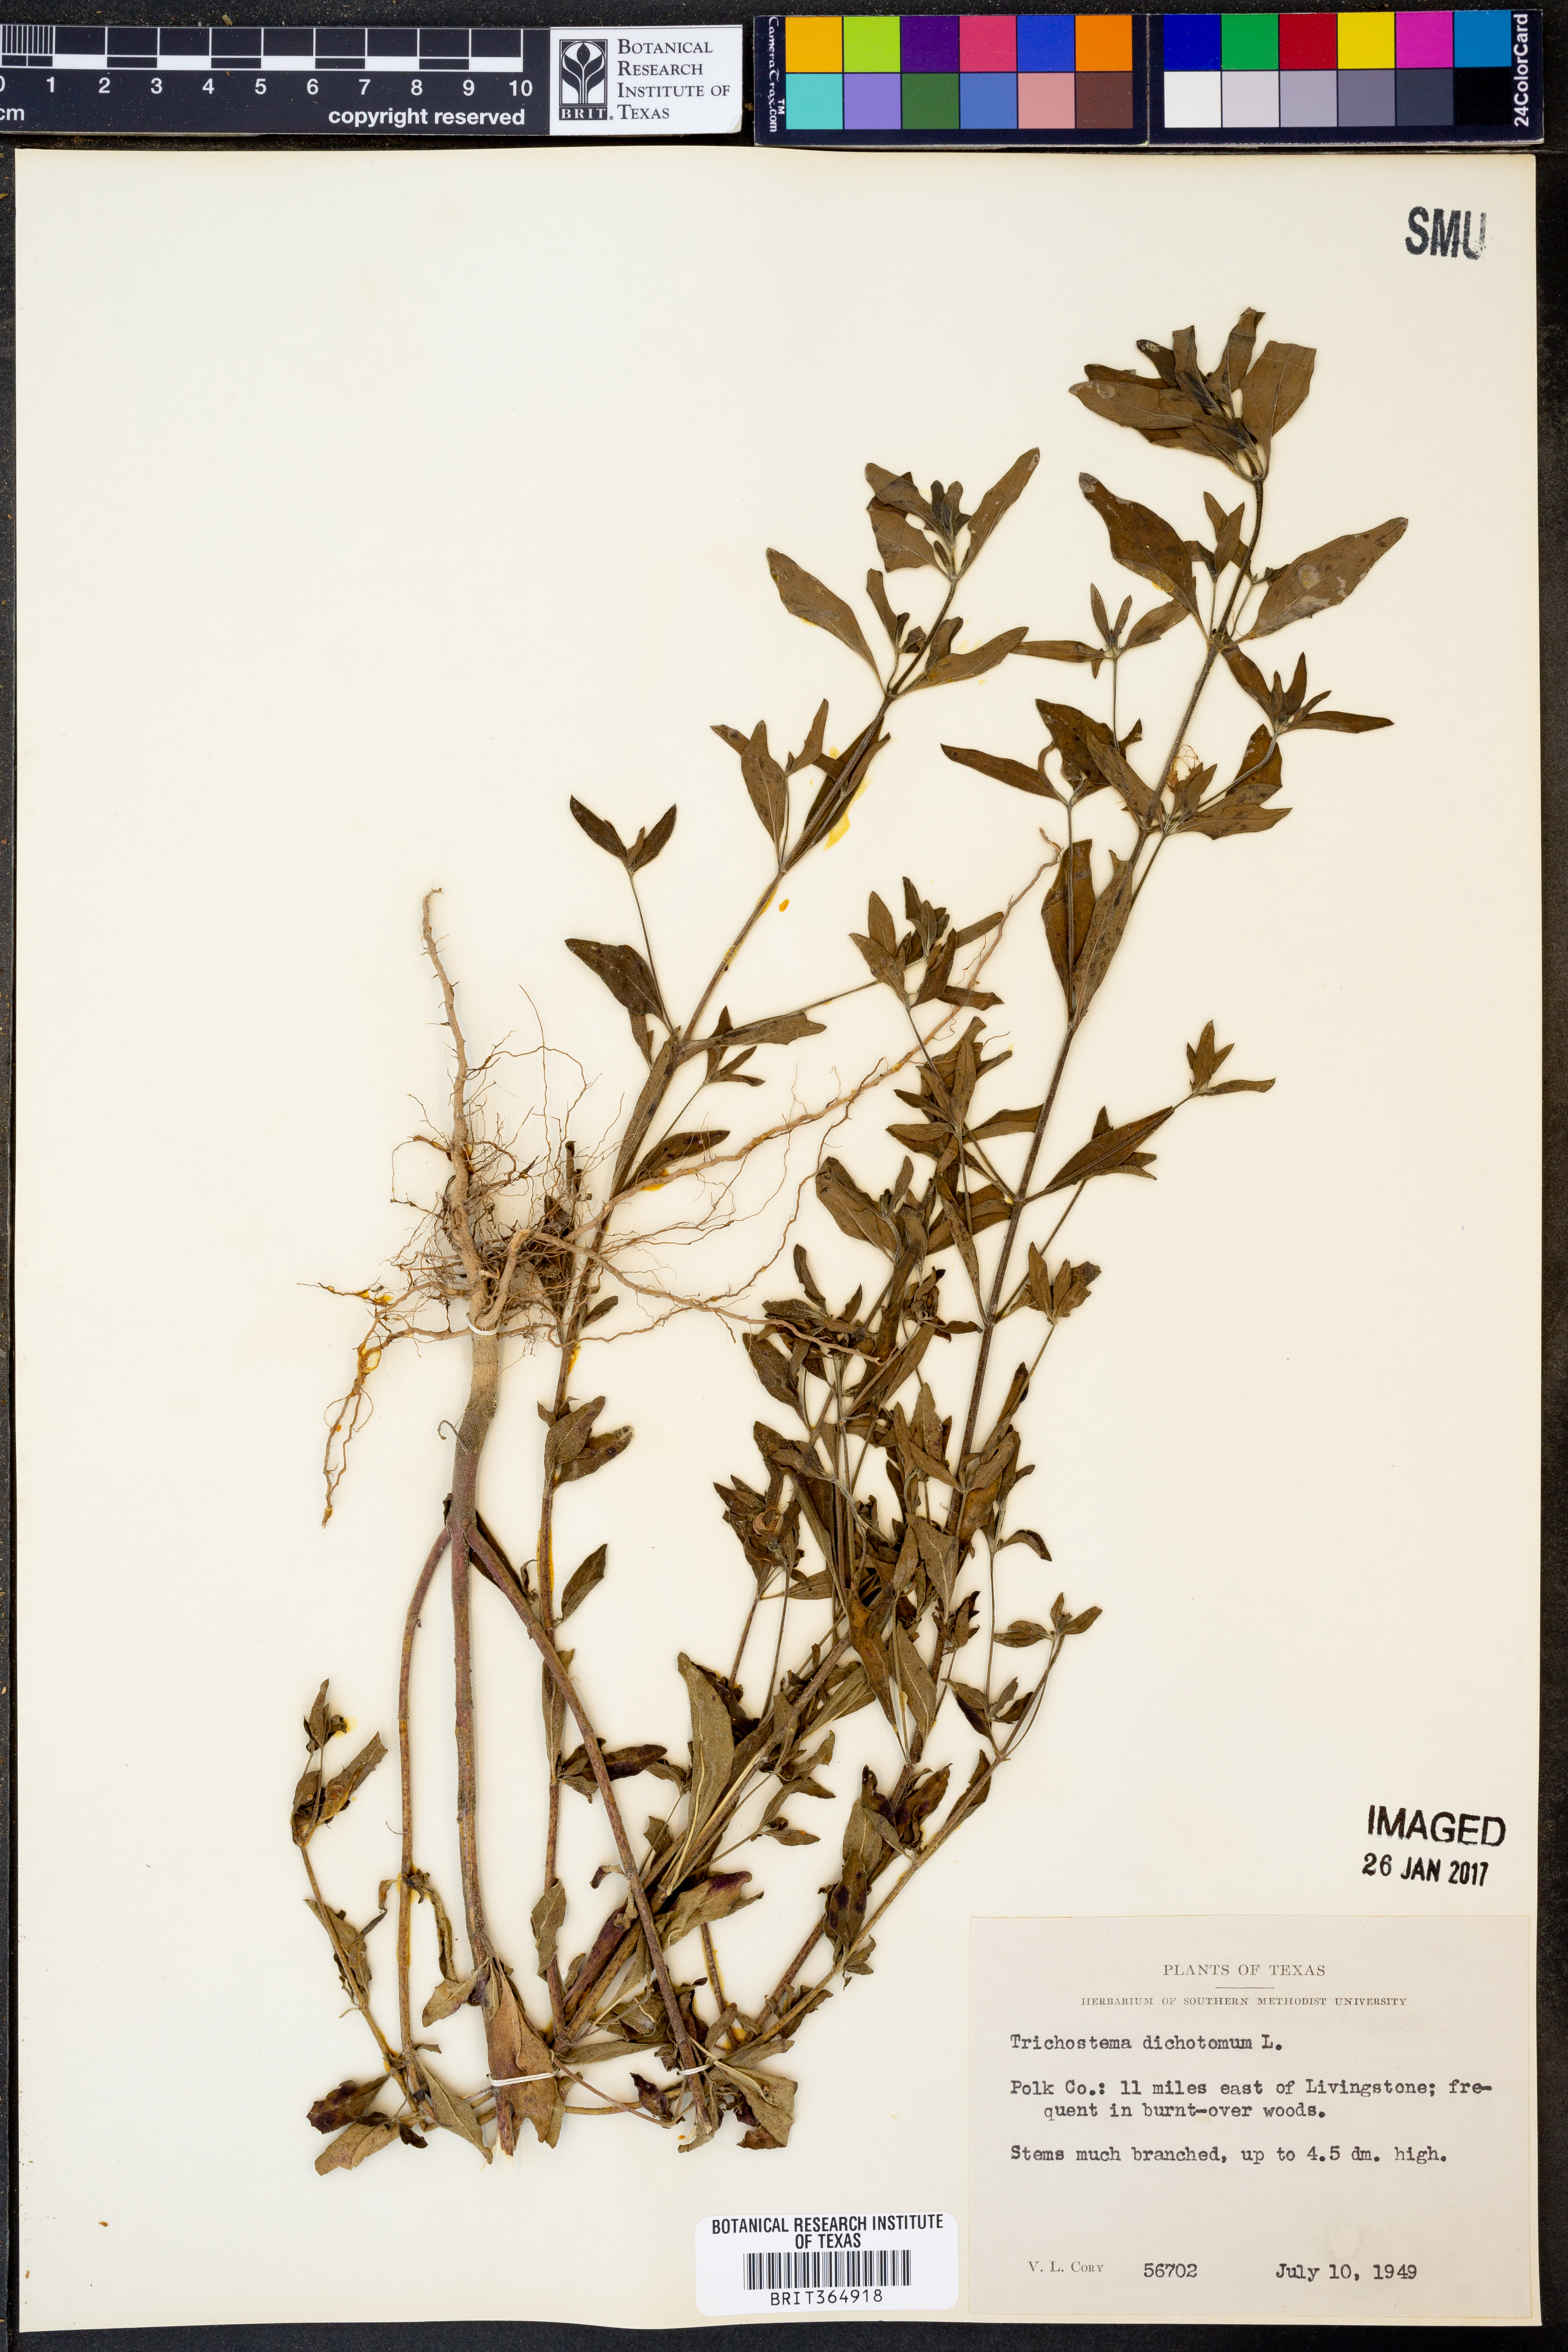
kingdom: Plantae
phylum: Tracheophyta
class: Magnoliopsida
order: Lamiales
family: Lamiaceae
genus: Trichostema
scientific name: Trichostema dichotomum
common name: Bastard pennyroyal
